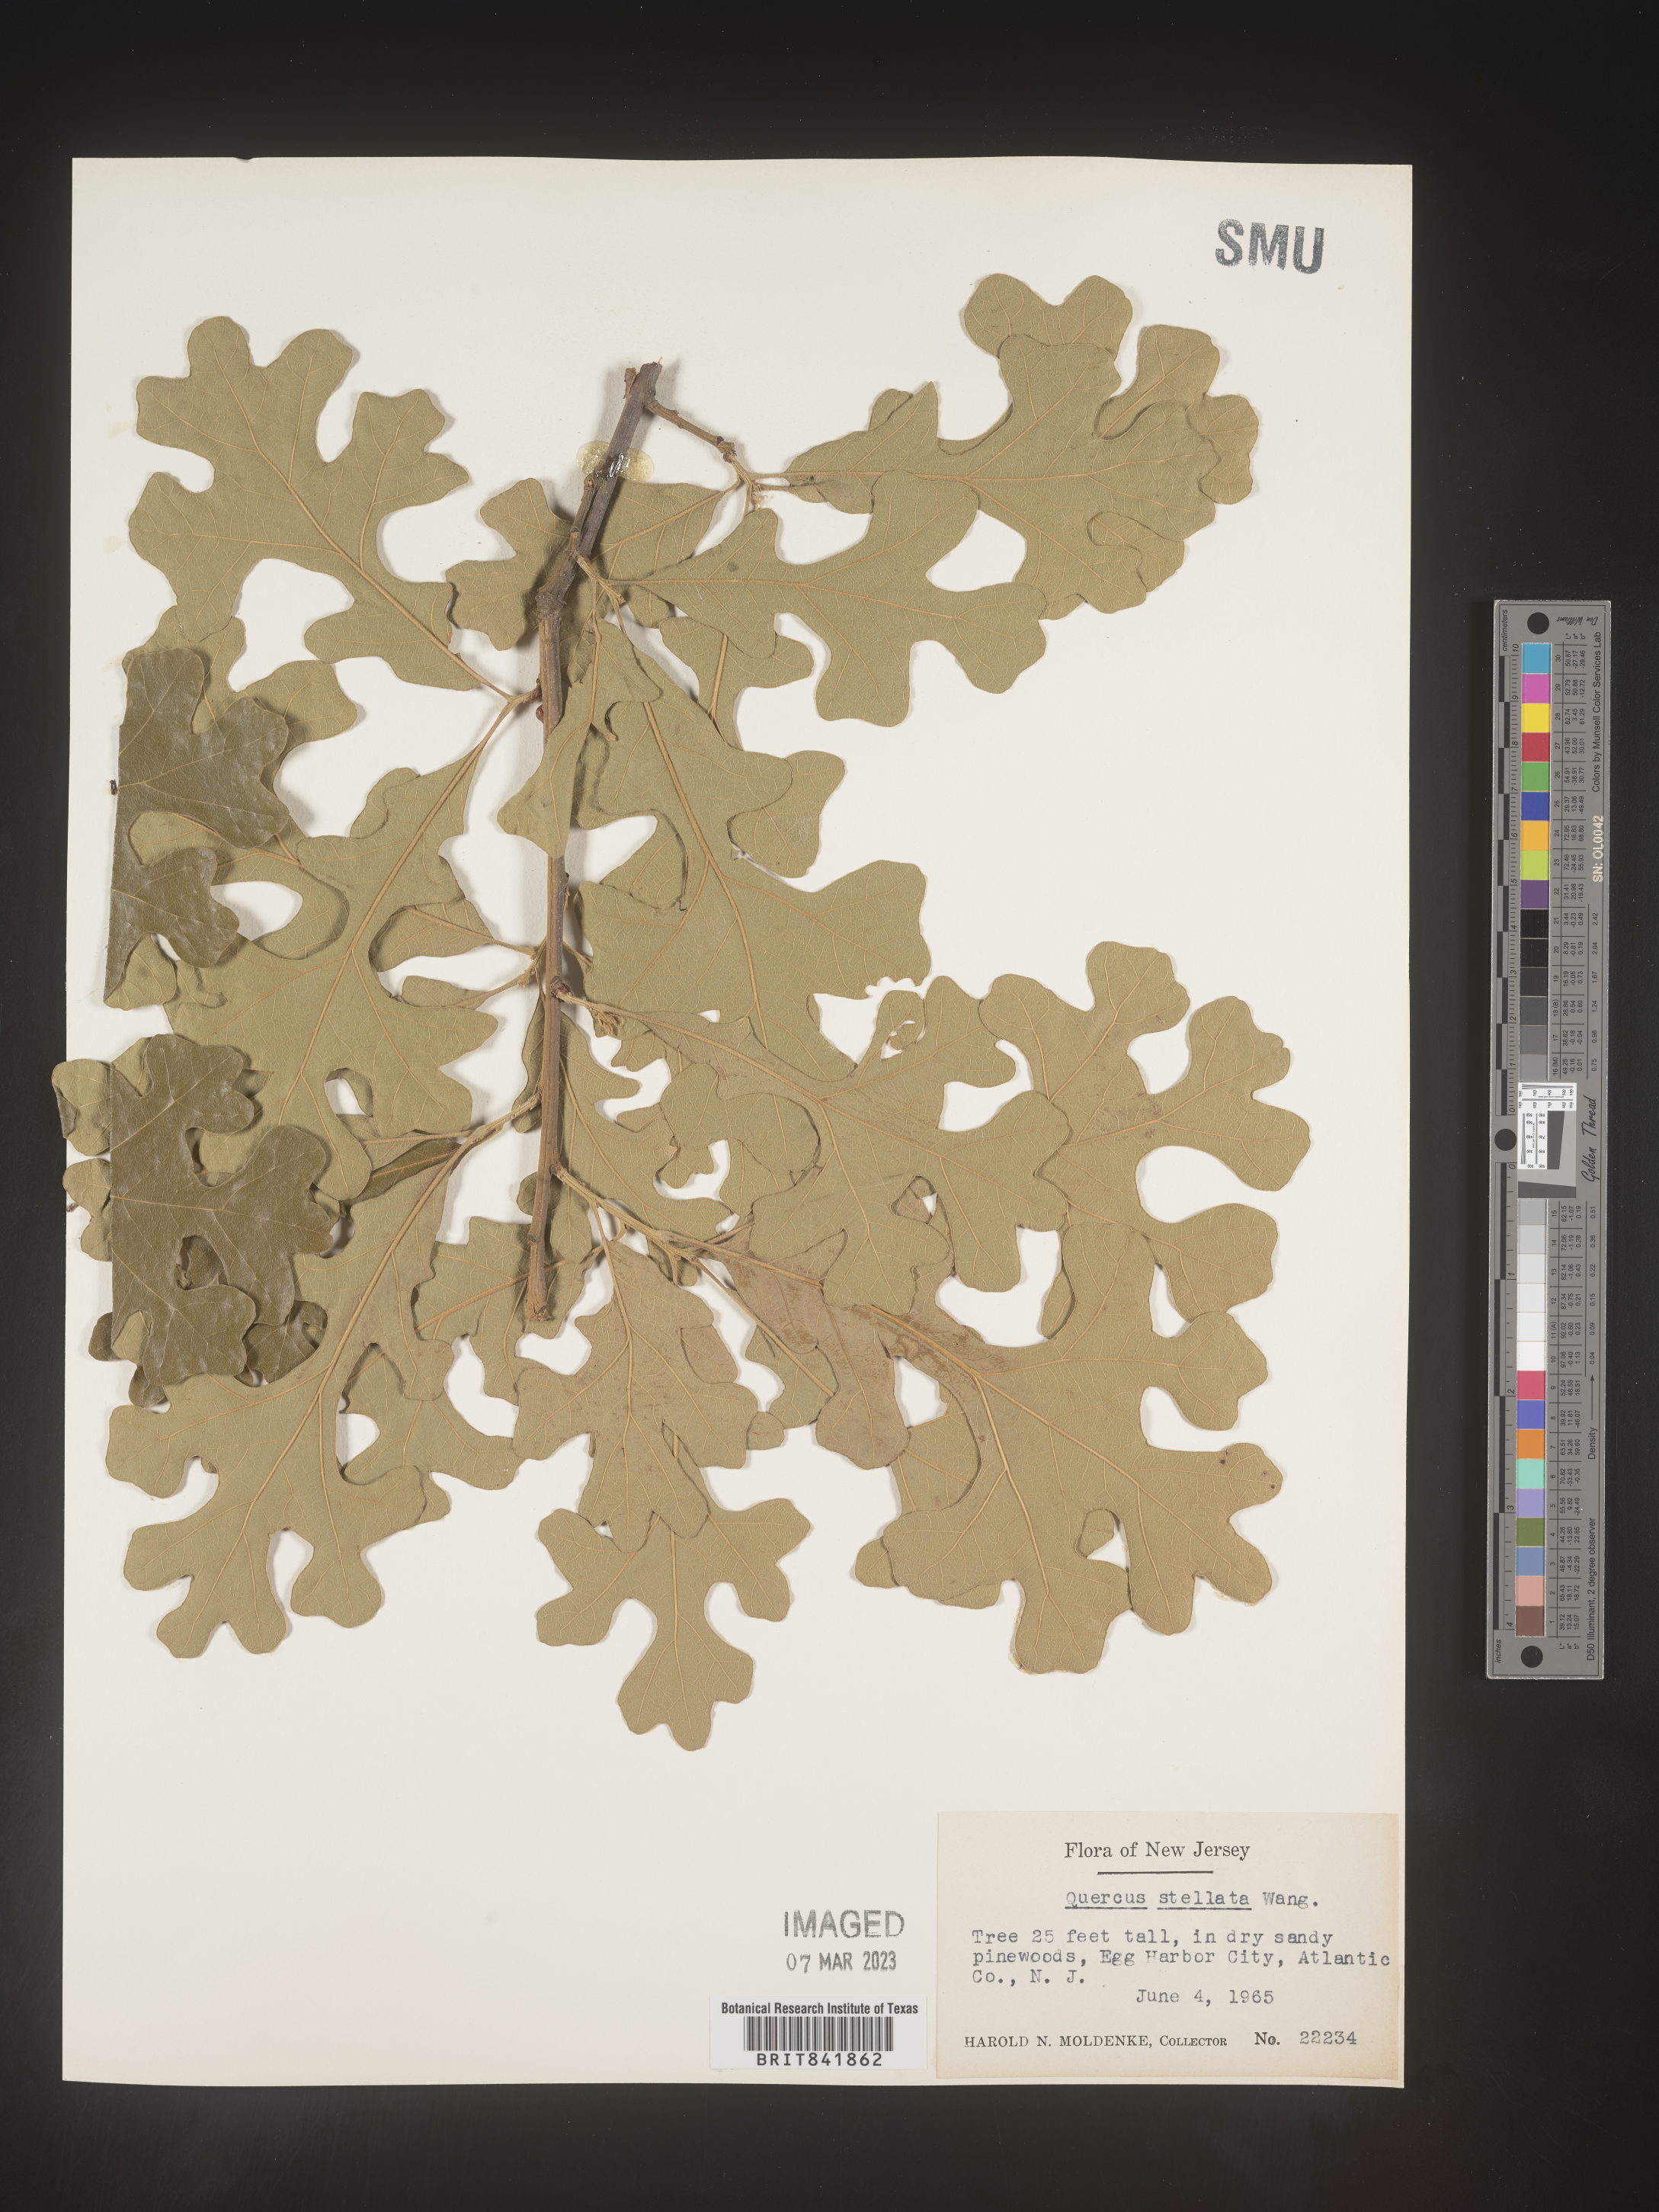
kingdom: Plantae
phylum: Tracheophyta
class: Magnoliopsida
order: Fagales
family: Fagaceae
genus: Quercus
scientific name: Quercus stellata
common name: Post oak
